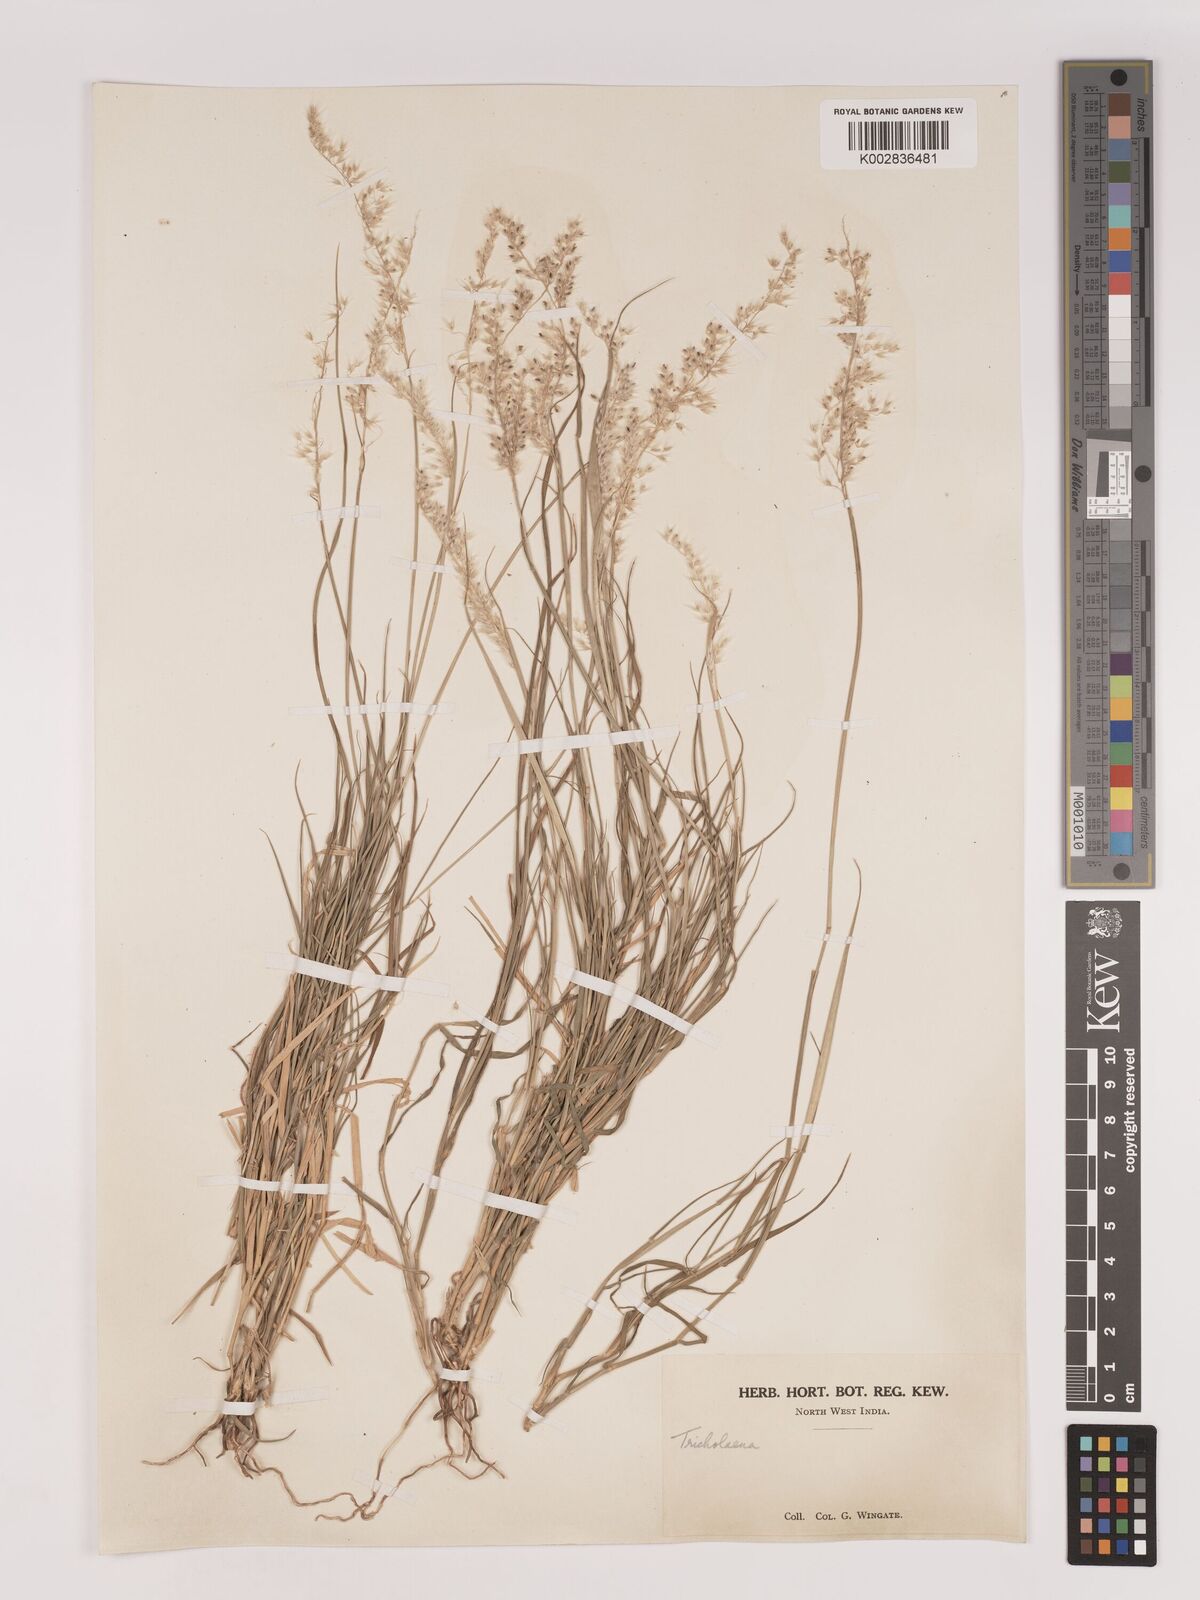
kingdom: Plantae
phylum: Tracheophyta
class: Liliopsida
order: Poales
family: Poaceae
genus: Tricholaena
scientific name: Tricholaena teneriffae
